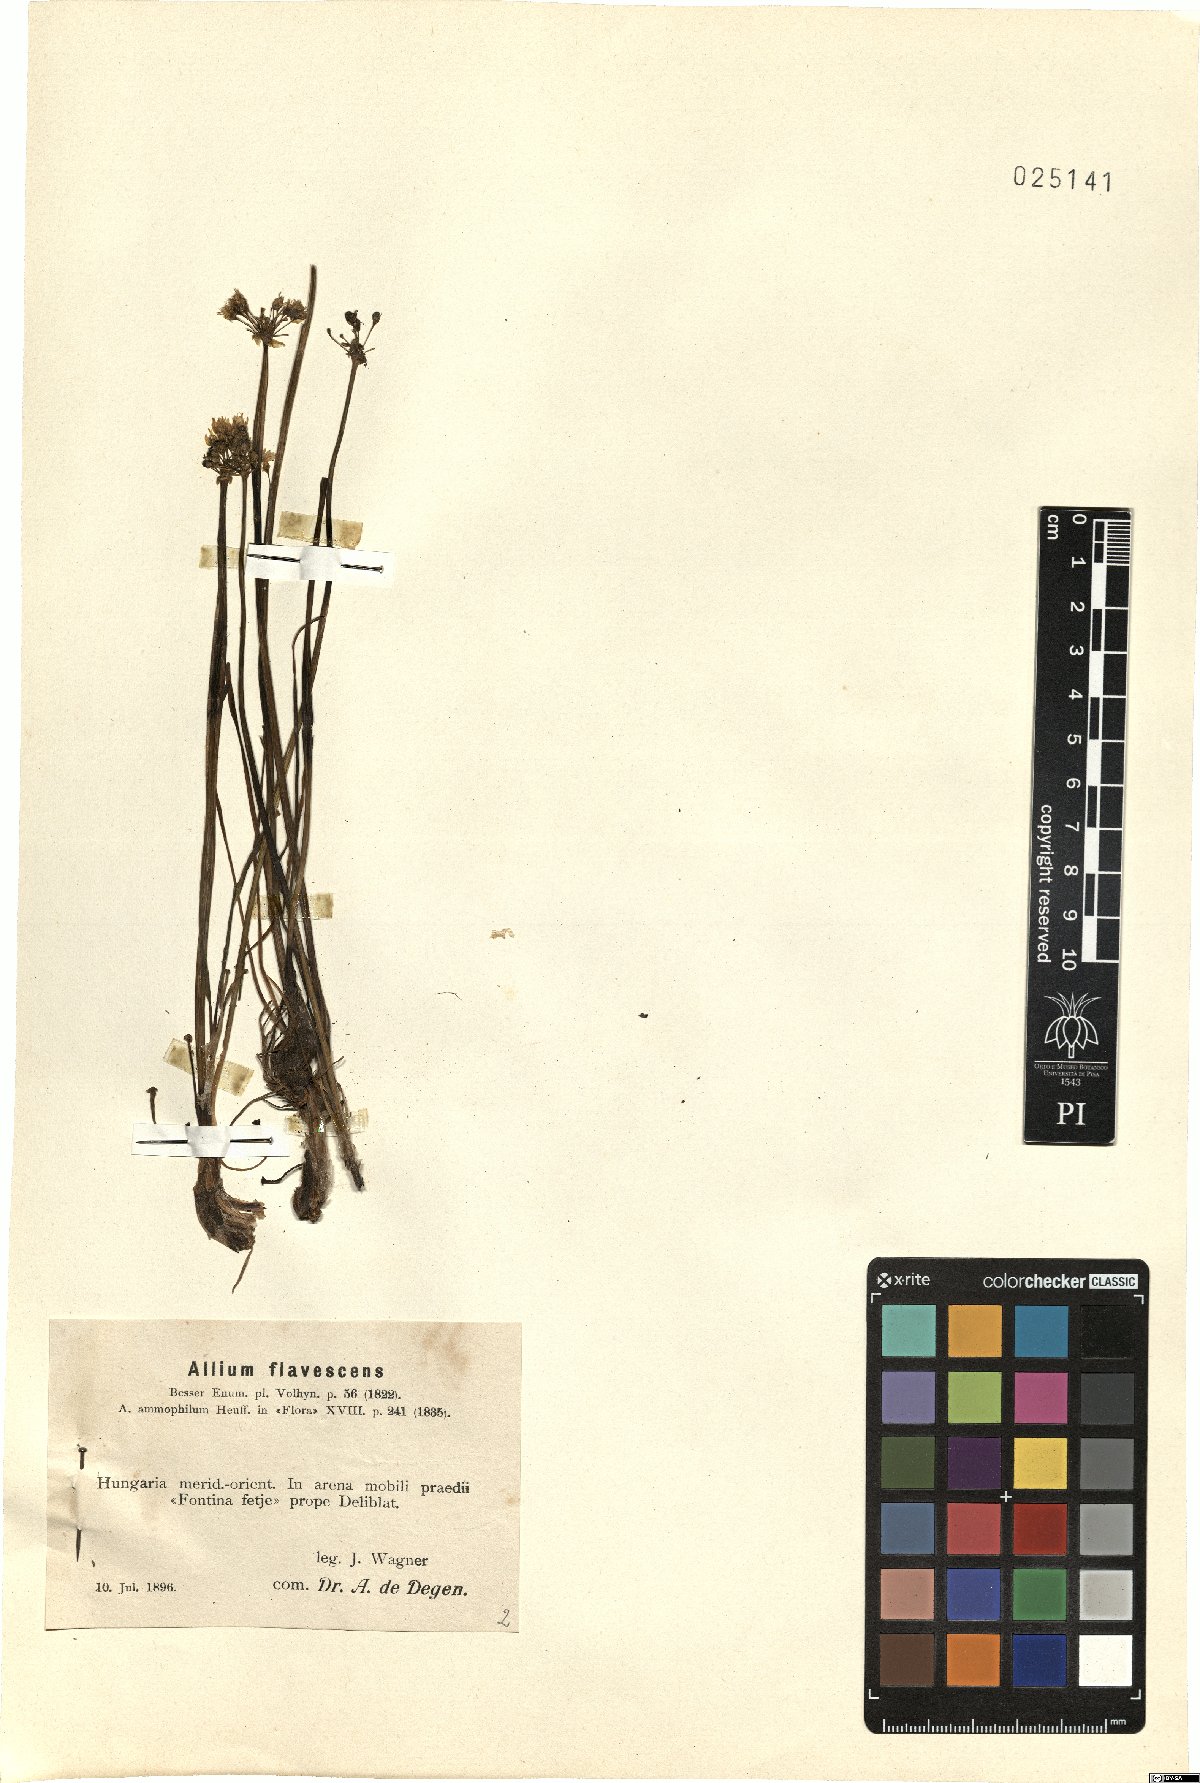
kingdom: Plantae
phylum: Tracheophyta
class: Liliopsida
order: Asparagales
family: Amaryllidaceae
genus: Allium
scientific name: Allium flavescens
